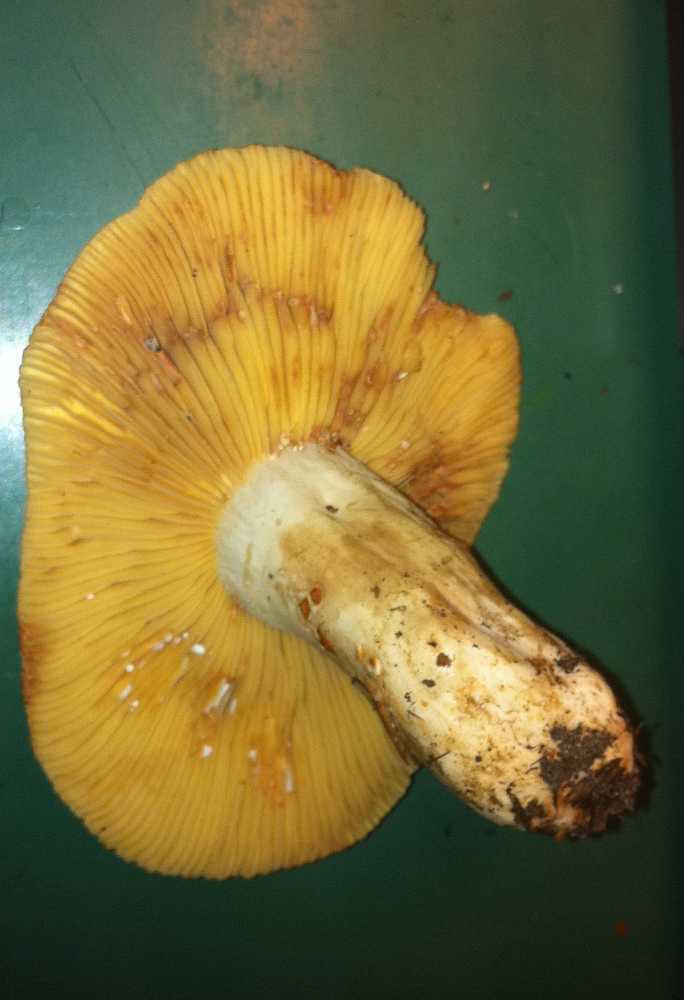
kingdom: Fungi
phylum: Basidiomycota
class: Agaricomycetes
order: Russulales
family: Russulaceae
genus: Lactarius
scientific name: Lactarius acris
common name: rosamælket mælkehat
